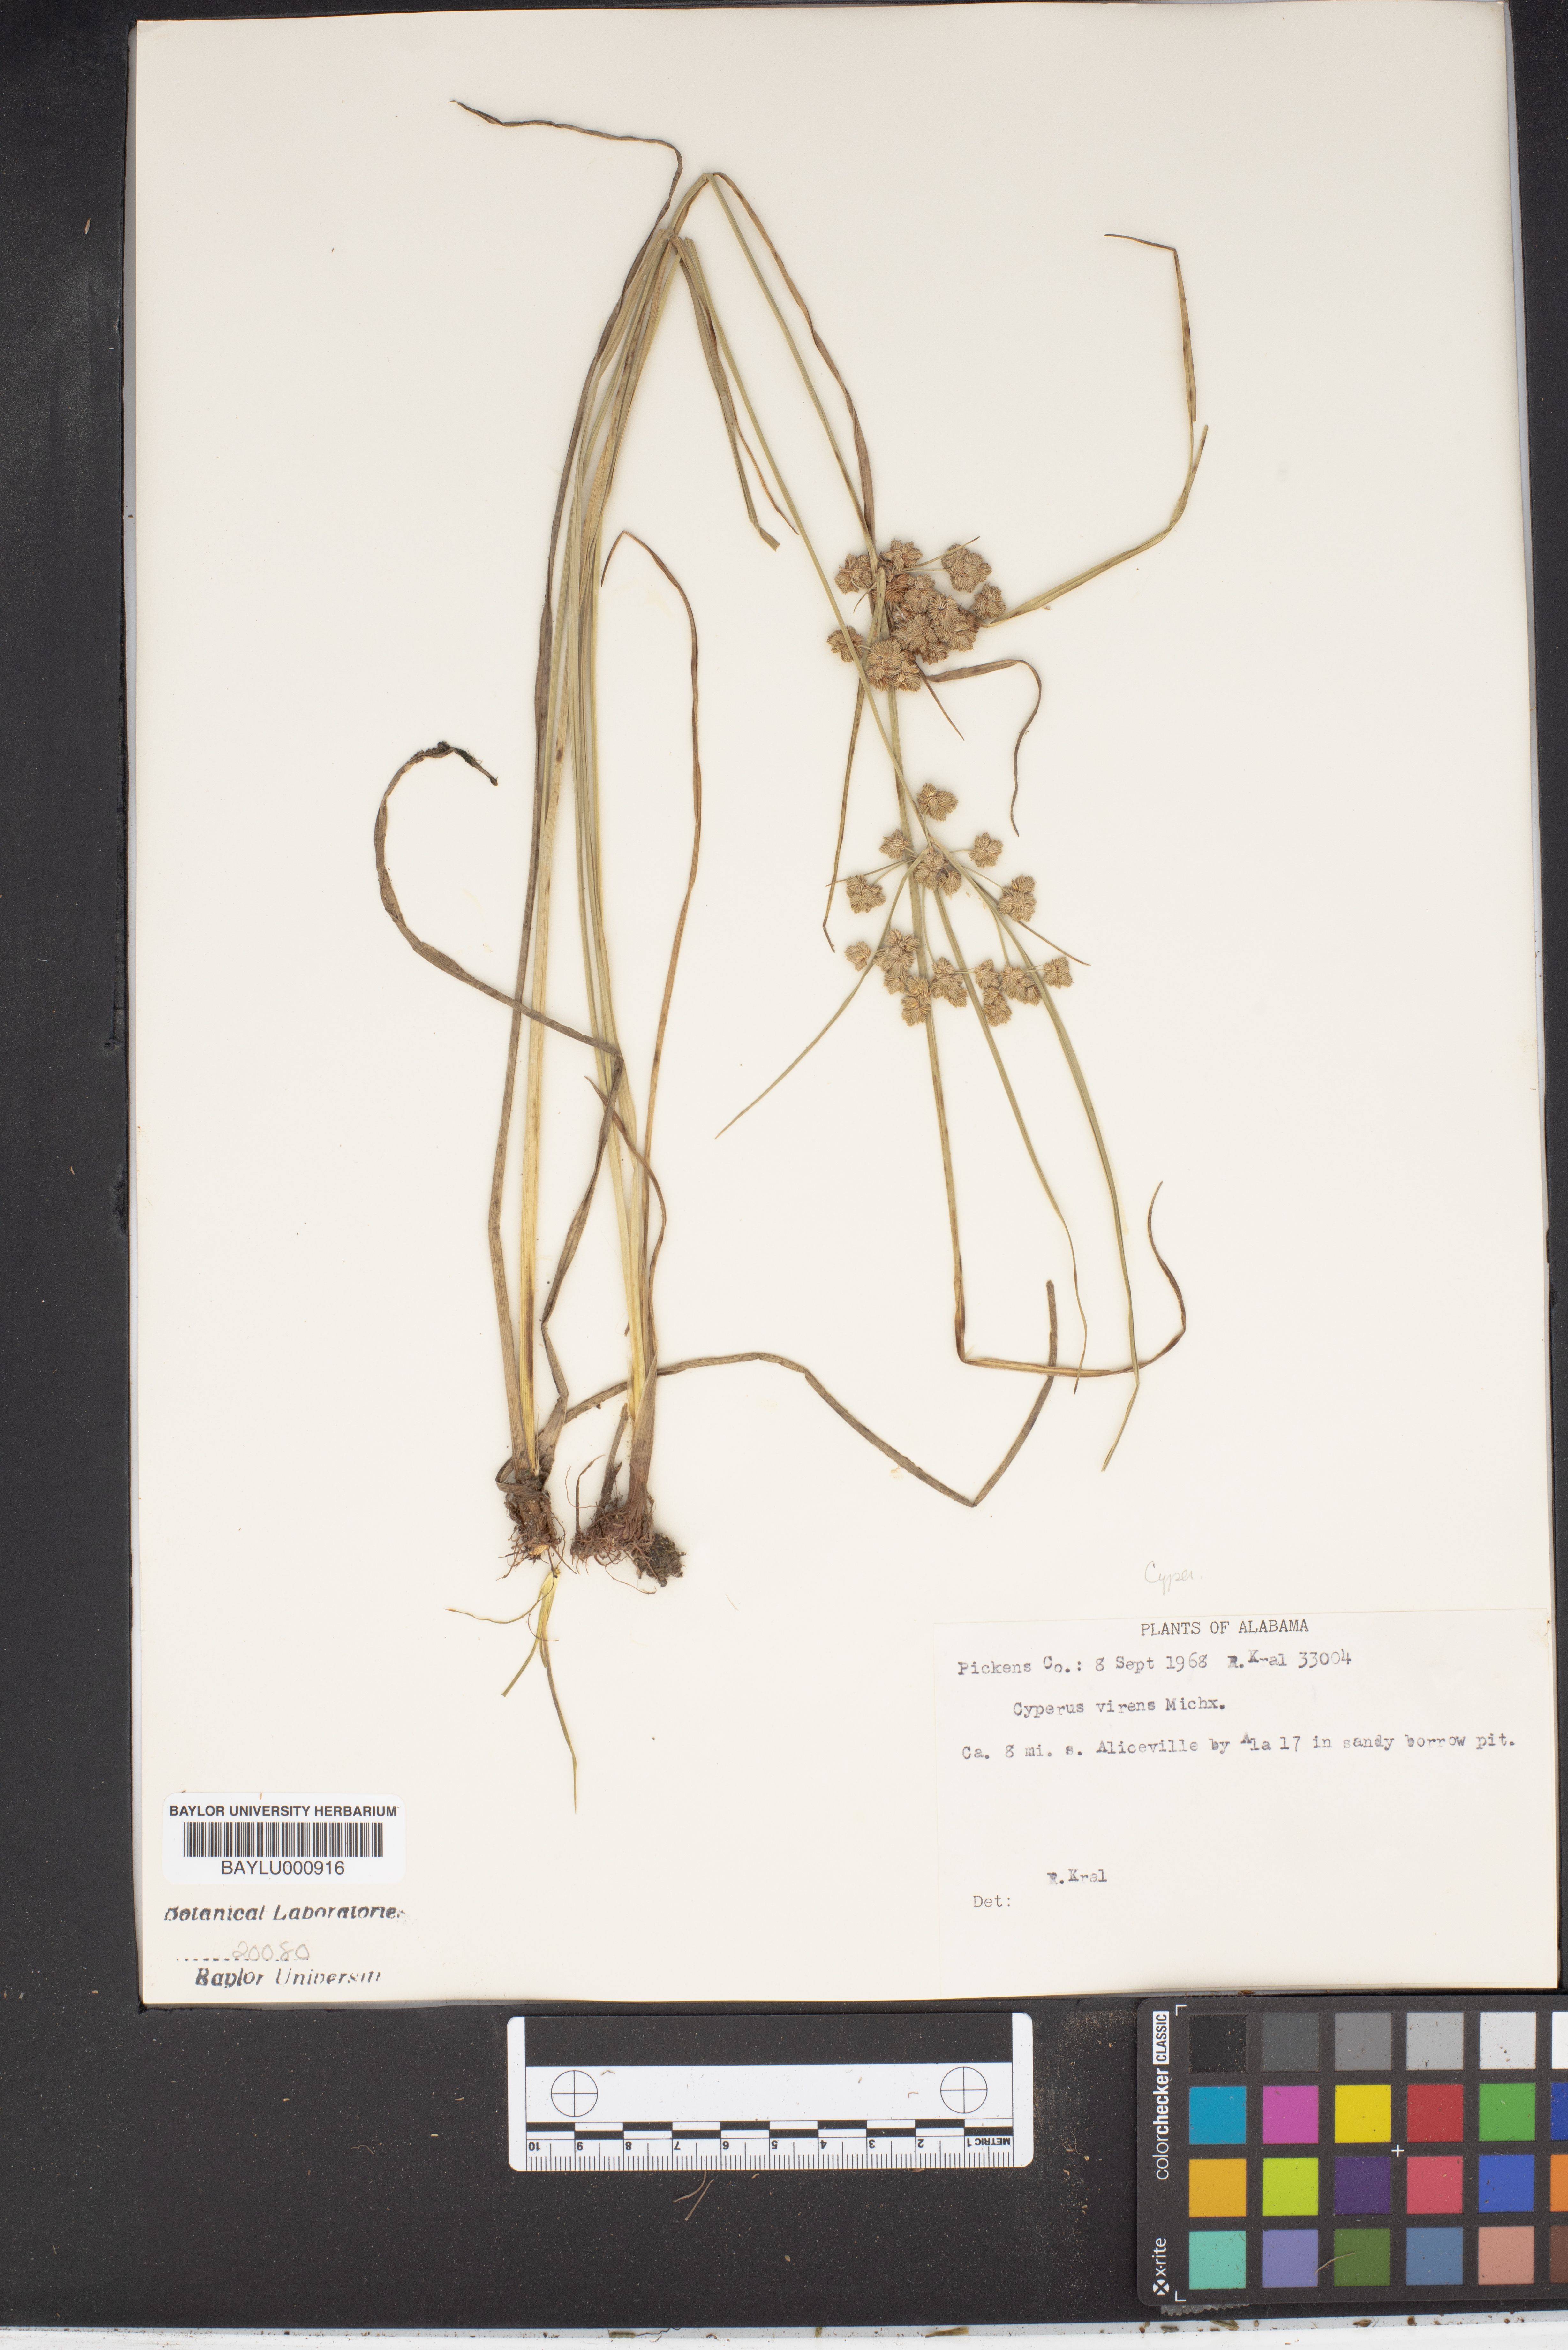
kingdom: Plantae
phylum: Tracheophyta
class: Liliopsida
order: Poales
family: Cyperaceae
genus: Cyperus
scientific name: Cyperus virens
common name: Green flatsedge
